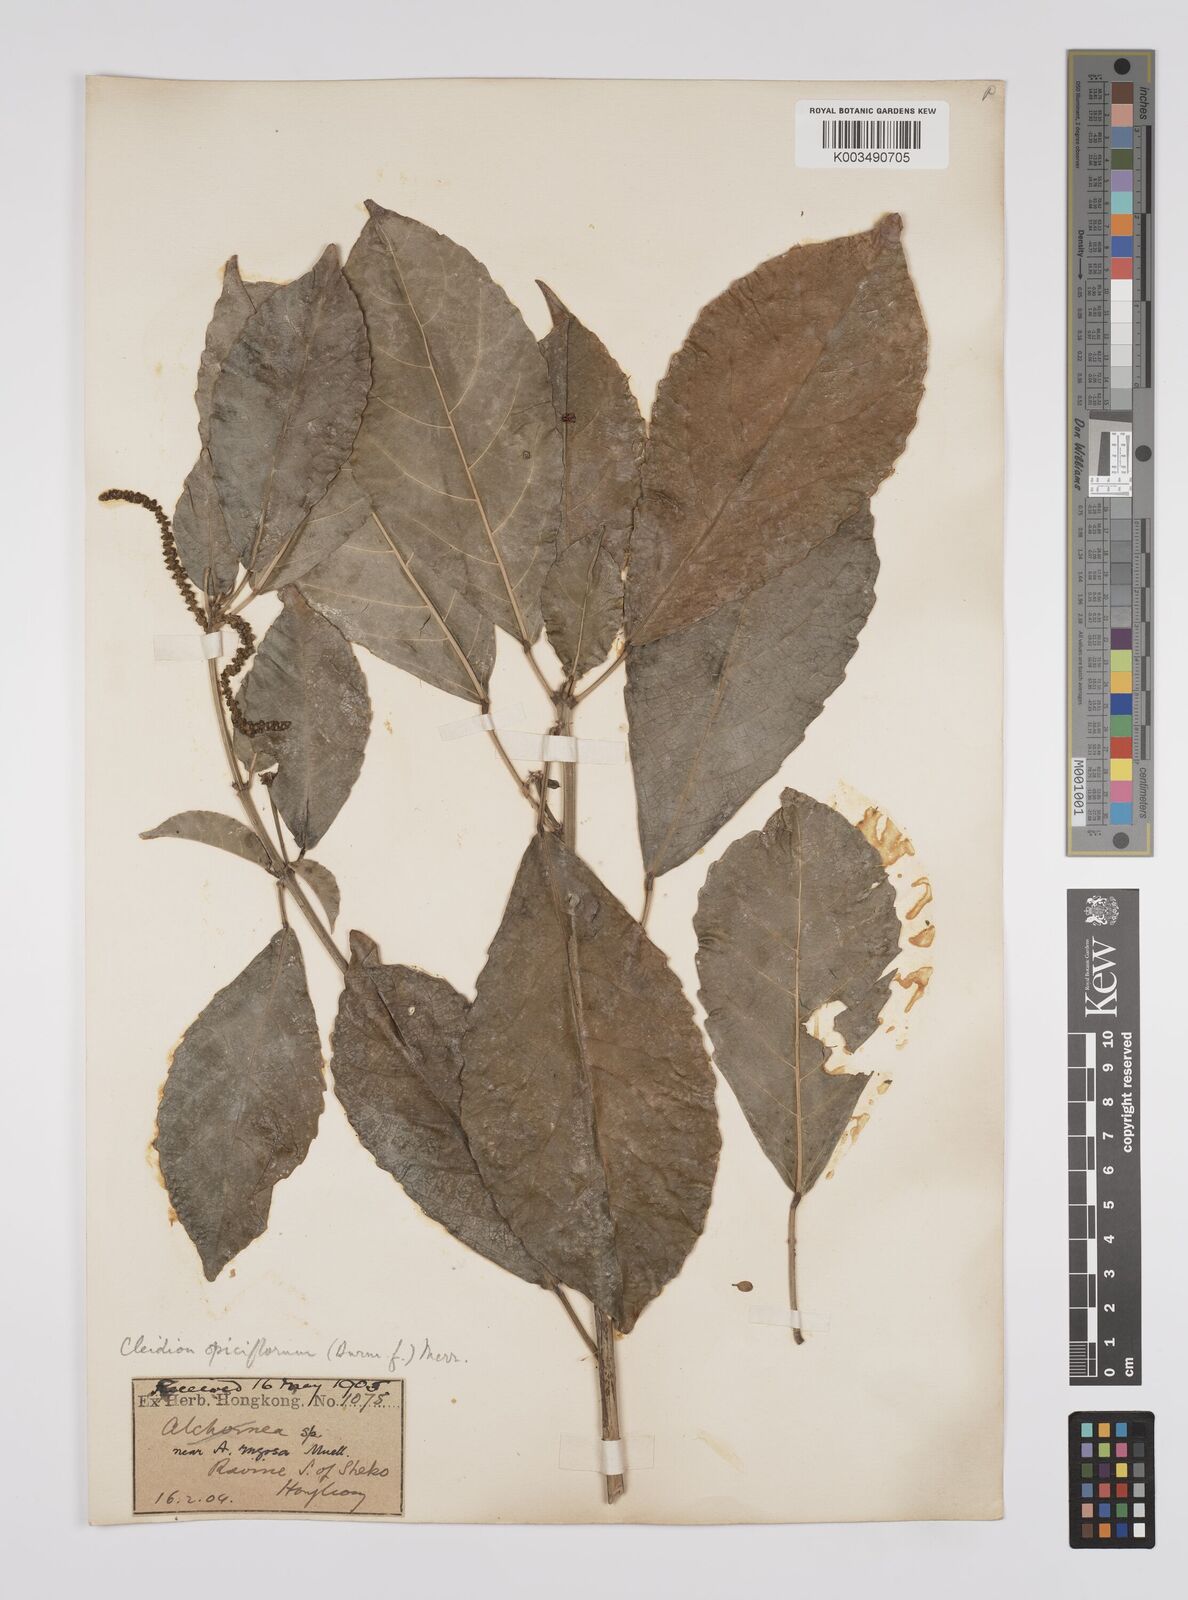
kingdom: Plantae
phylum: Tracheophyta
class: Magnoliopsida
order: Malpighiales
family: Euphorbiaceae
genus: Acalypha
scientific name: Acalypha spiciflora
